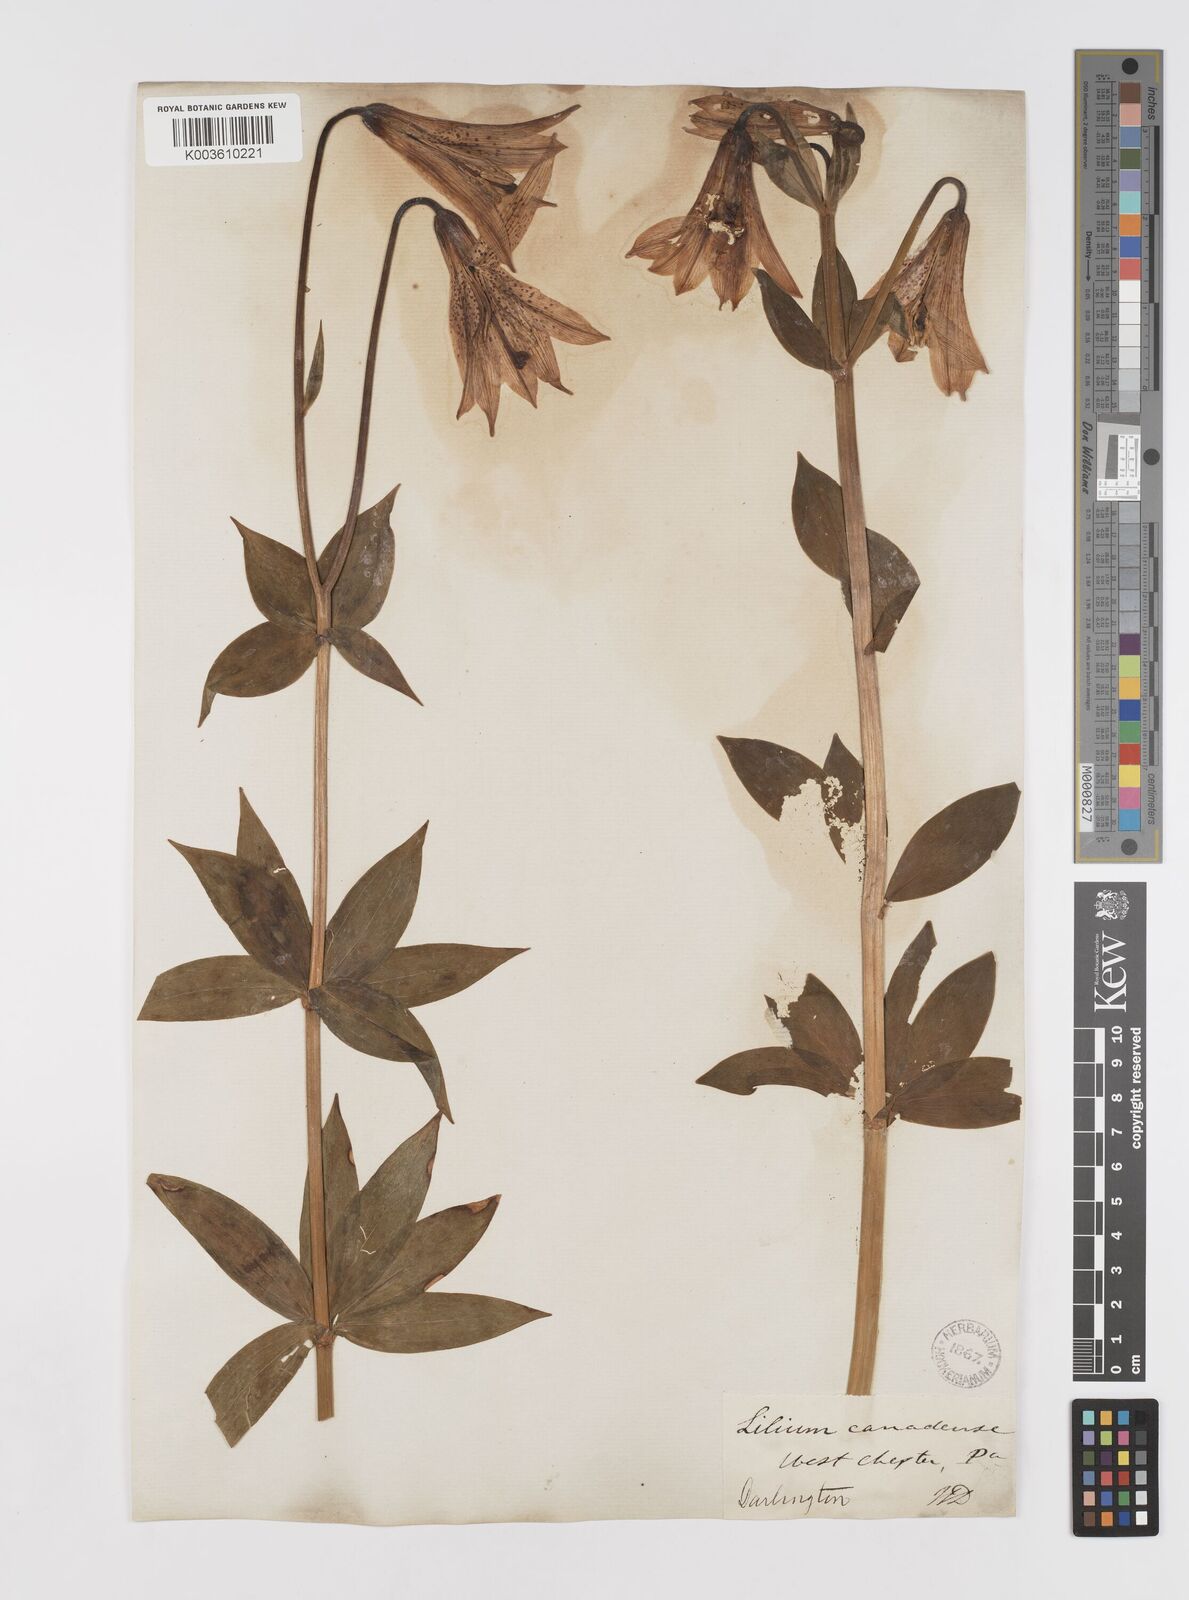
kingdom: Plantae
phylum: Tracheophyta
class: Liliopsida
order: Liliales
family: Liliaceae
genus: Lilium
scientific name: Lilium canadense
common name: Canada lily
